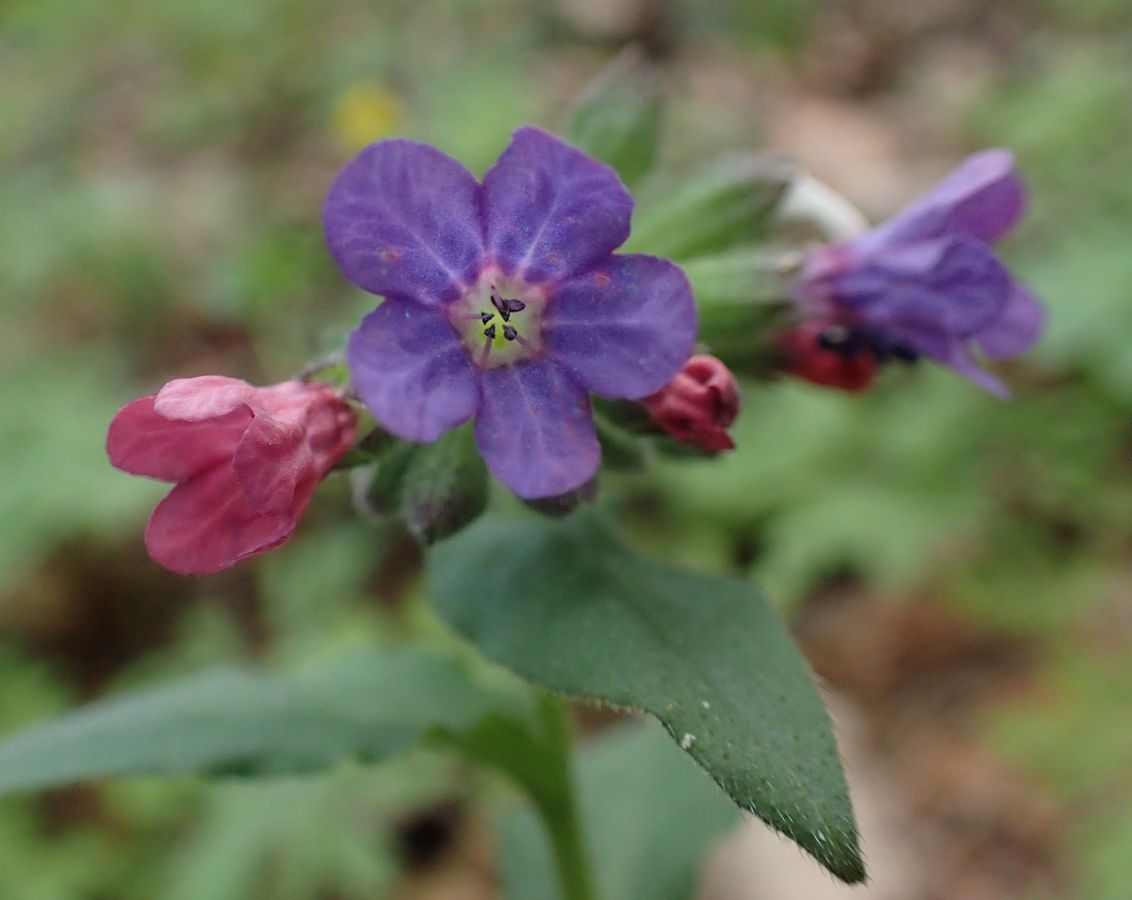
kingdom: Plantae
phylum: Tracheophyta
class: Magnoliopsida
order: Boraginales
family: Boraginaceae
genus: Pulmonaria
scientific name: Pulmonaria
